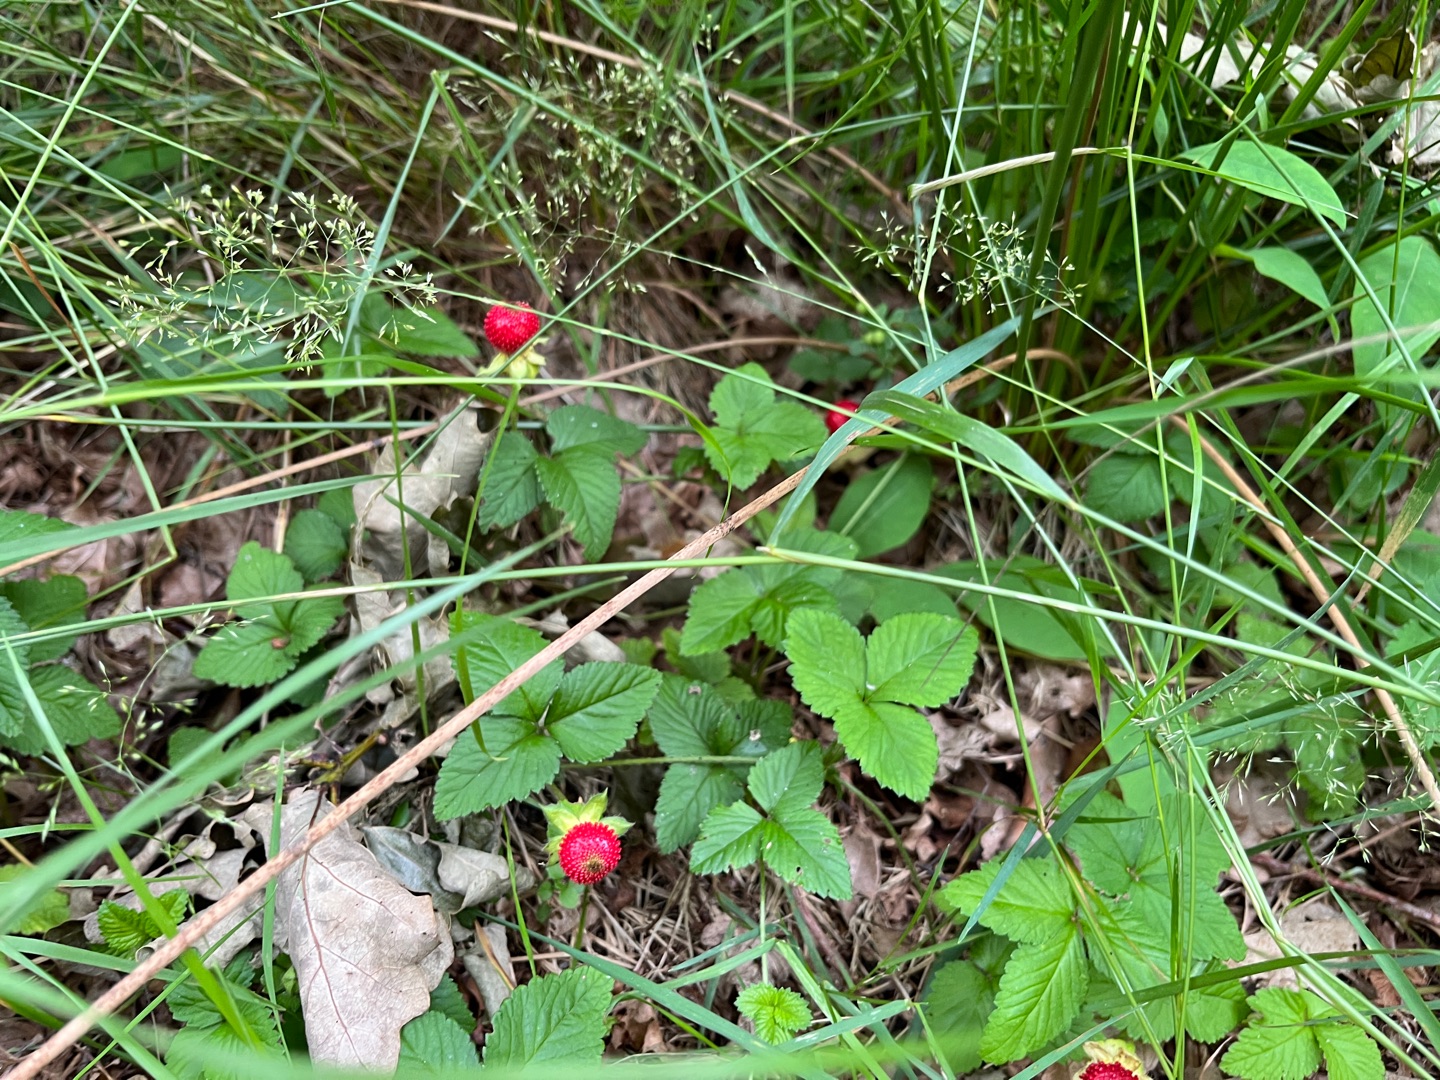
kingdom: Plantae
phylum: Tracheophyta
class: Magnoliopsida
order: Rosales
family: Rosaceae
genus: Potentilla
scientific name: Potentilla indica
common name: Indisk jordbær
